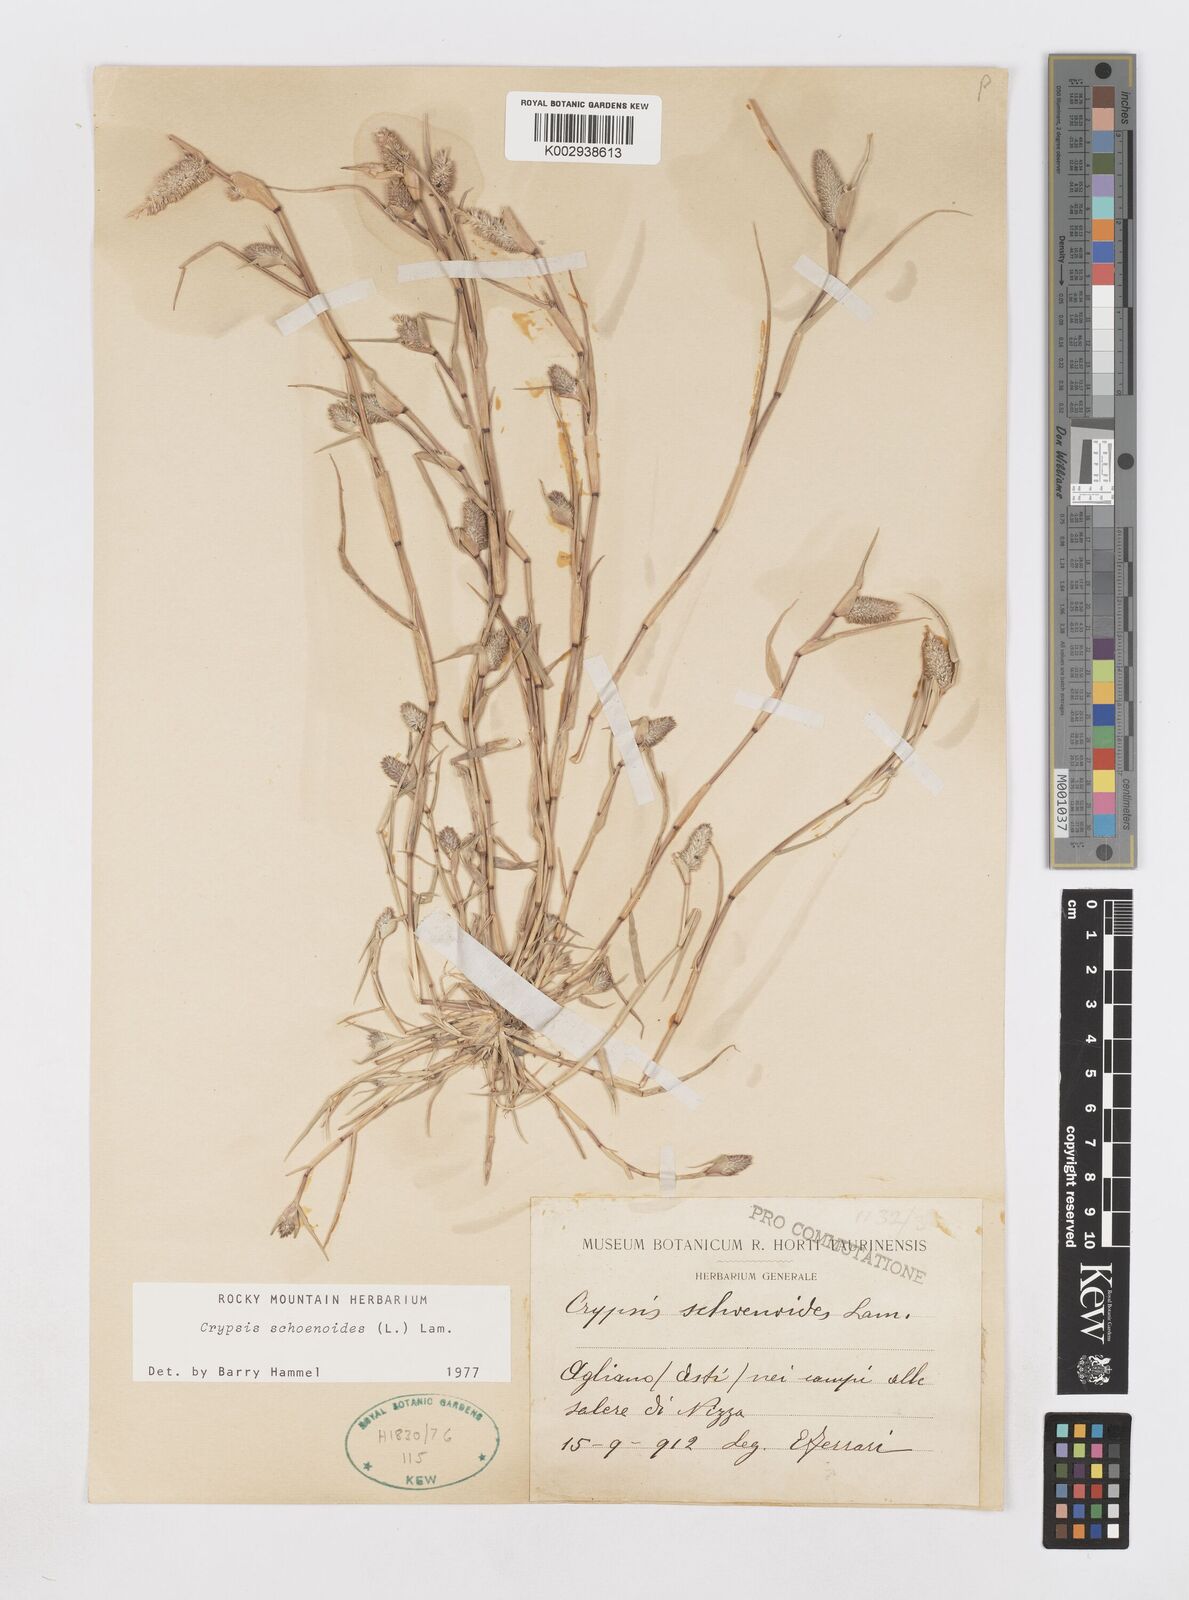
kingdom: Plantae
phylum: Tracheophyta
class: Liliopsida
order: Poales
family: Poaceae
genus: Sporobolus
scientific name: Sporobolus schoenoides
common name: Rush-like timothy
